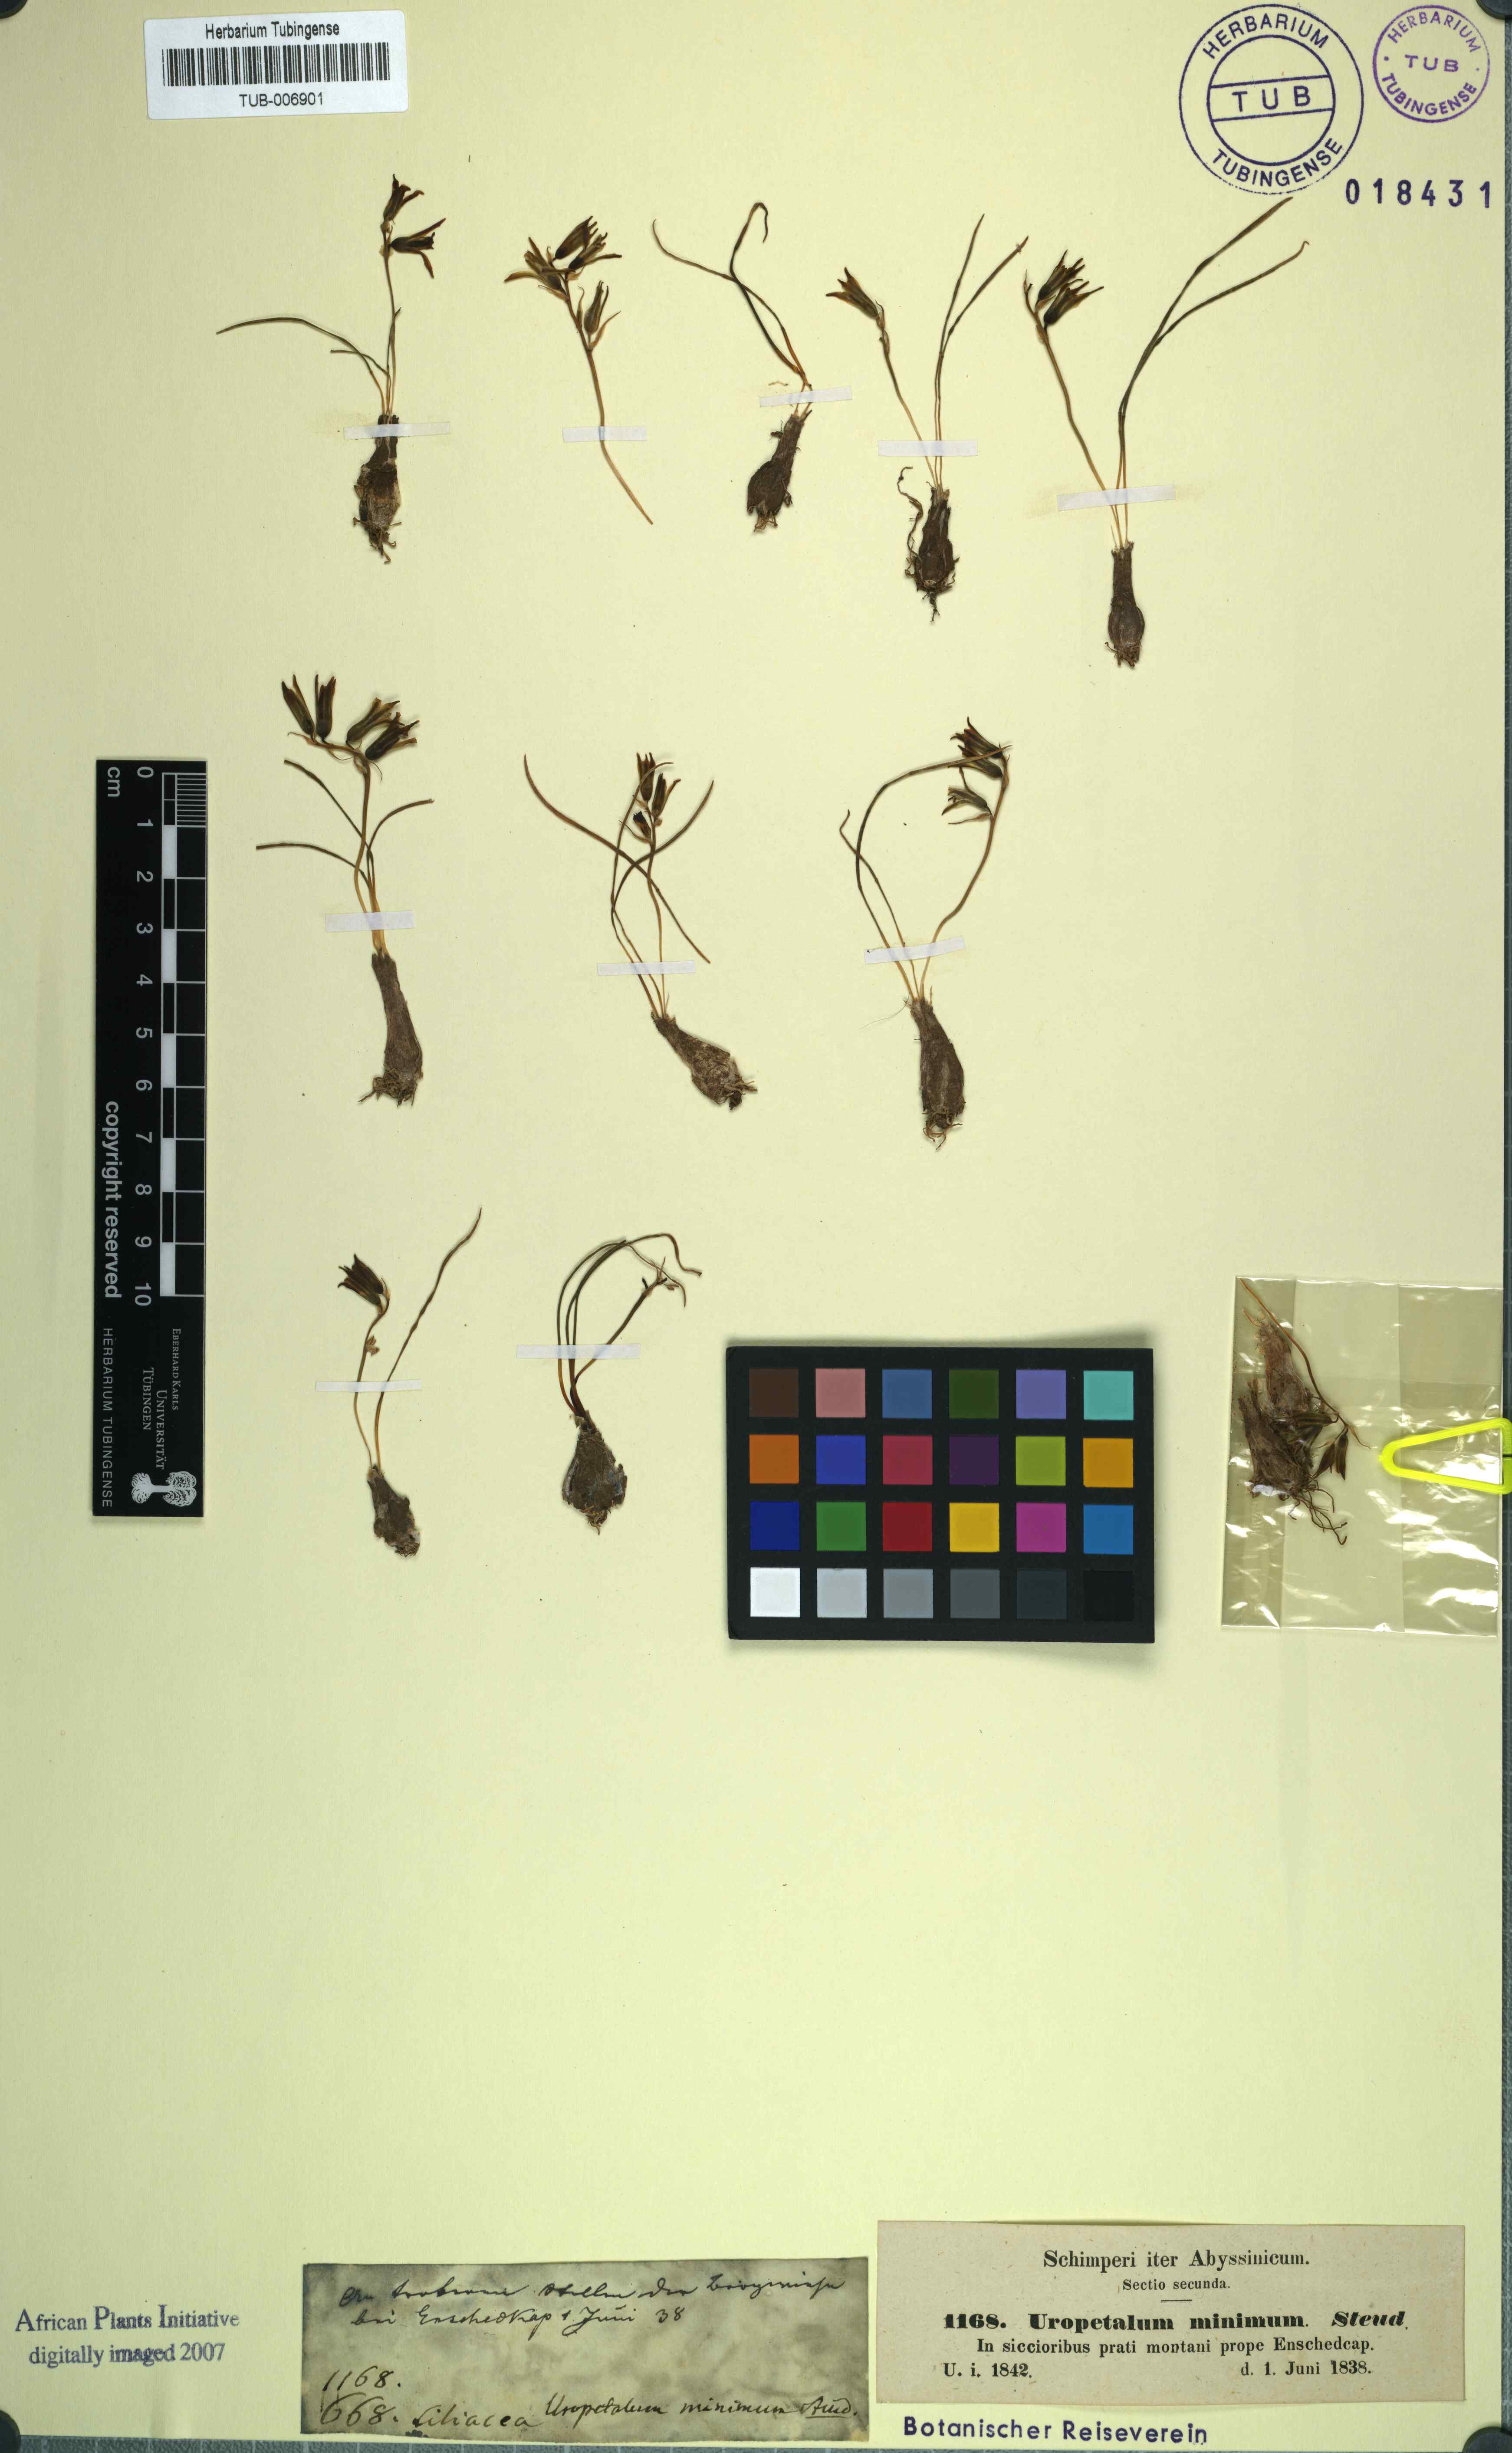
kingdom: Plantae
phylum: Tracheophyta
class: Liliopsida
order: Asparagales
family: Asparagaceae
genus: Dipcadi
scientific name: Dipcadi minimum
